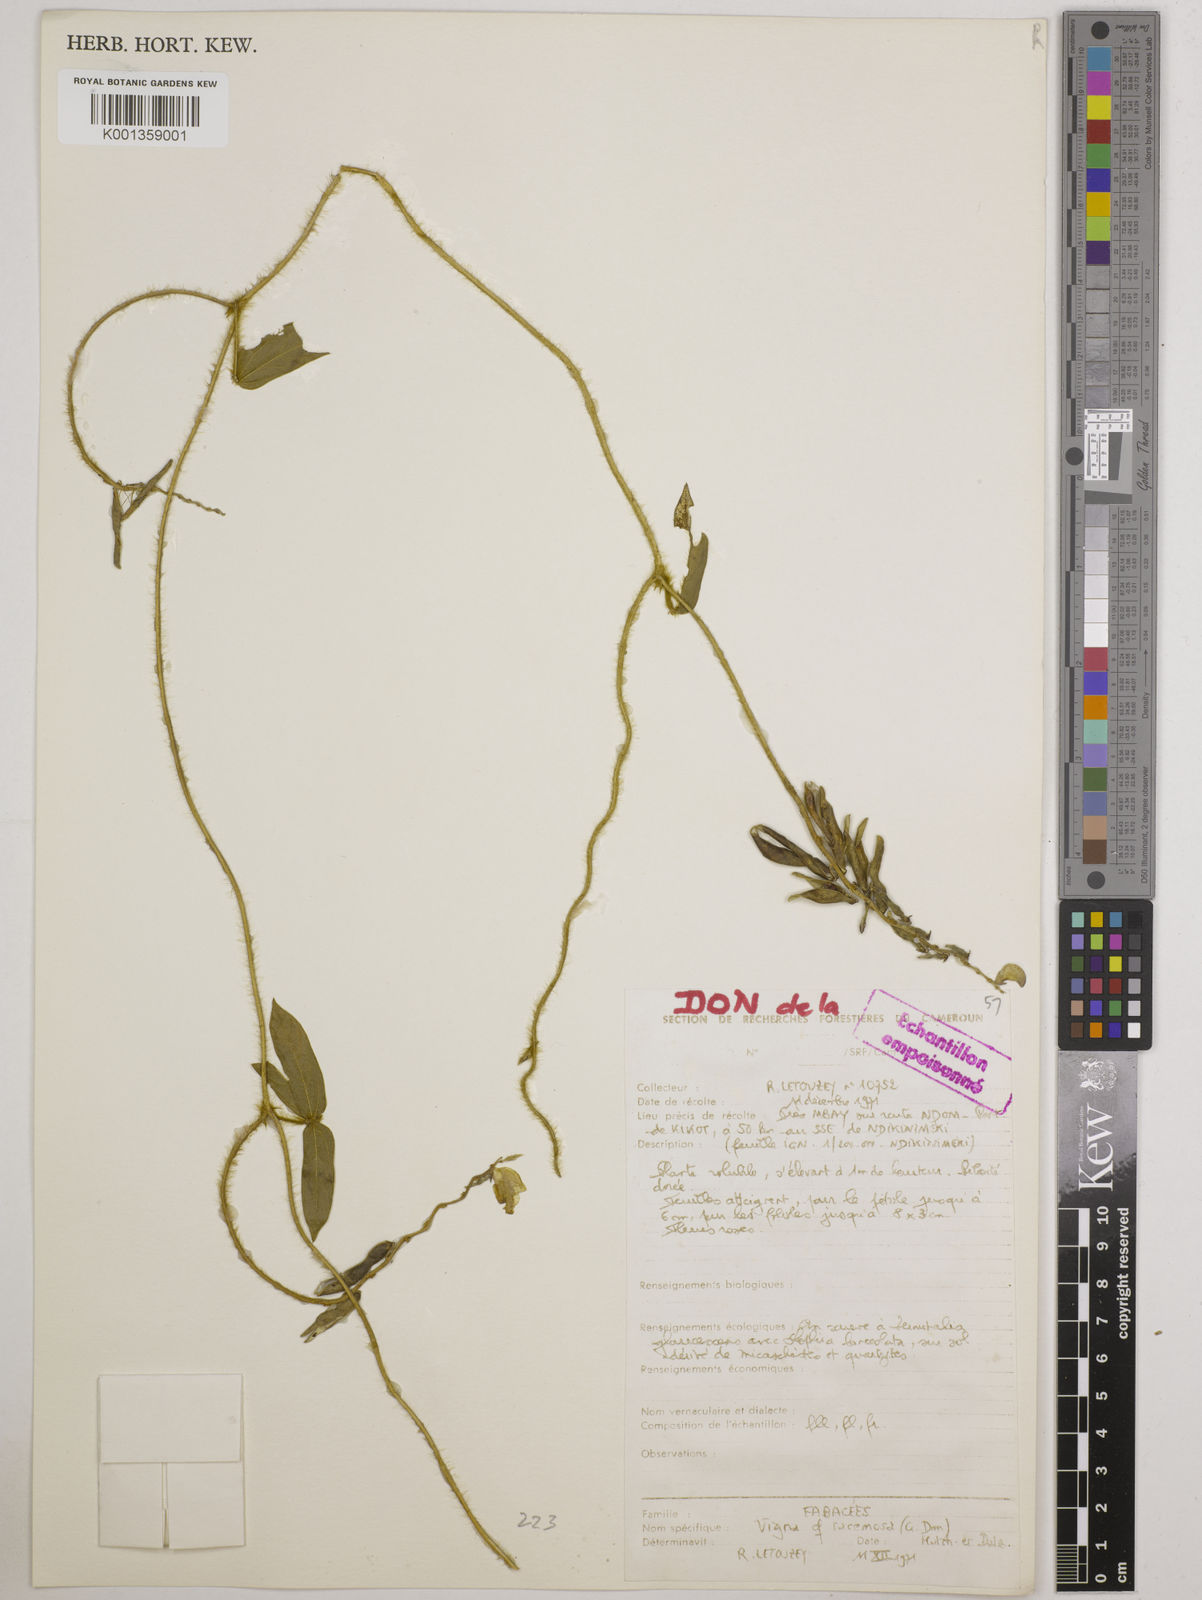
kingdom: Plantae
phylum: Tracheophyta
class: Magnoliopsida
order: Fabales
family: Fabaceae
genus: Vigna
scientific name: Vigna racemosa
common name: Beans not eaten
